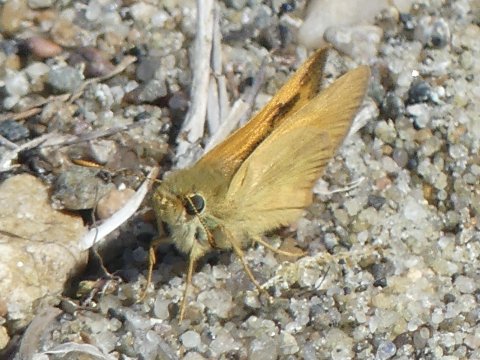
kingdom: Animalia
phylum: Arthropoda
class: Insecta
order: Lepidoptera
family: Hesperiidae
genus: Ochlodes
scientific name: Ochlodes sylvanoides
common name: Woodland Skipper
